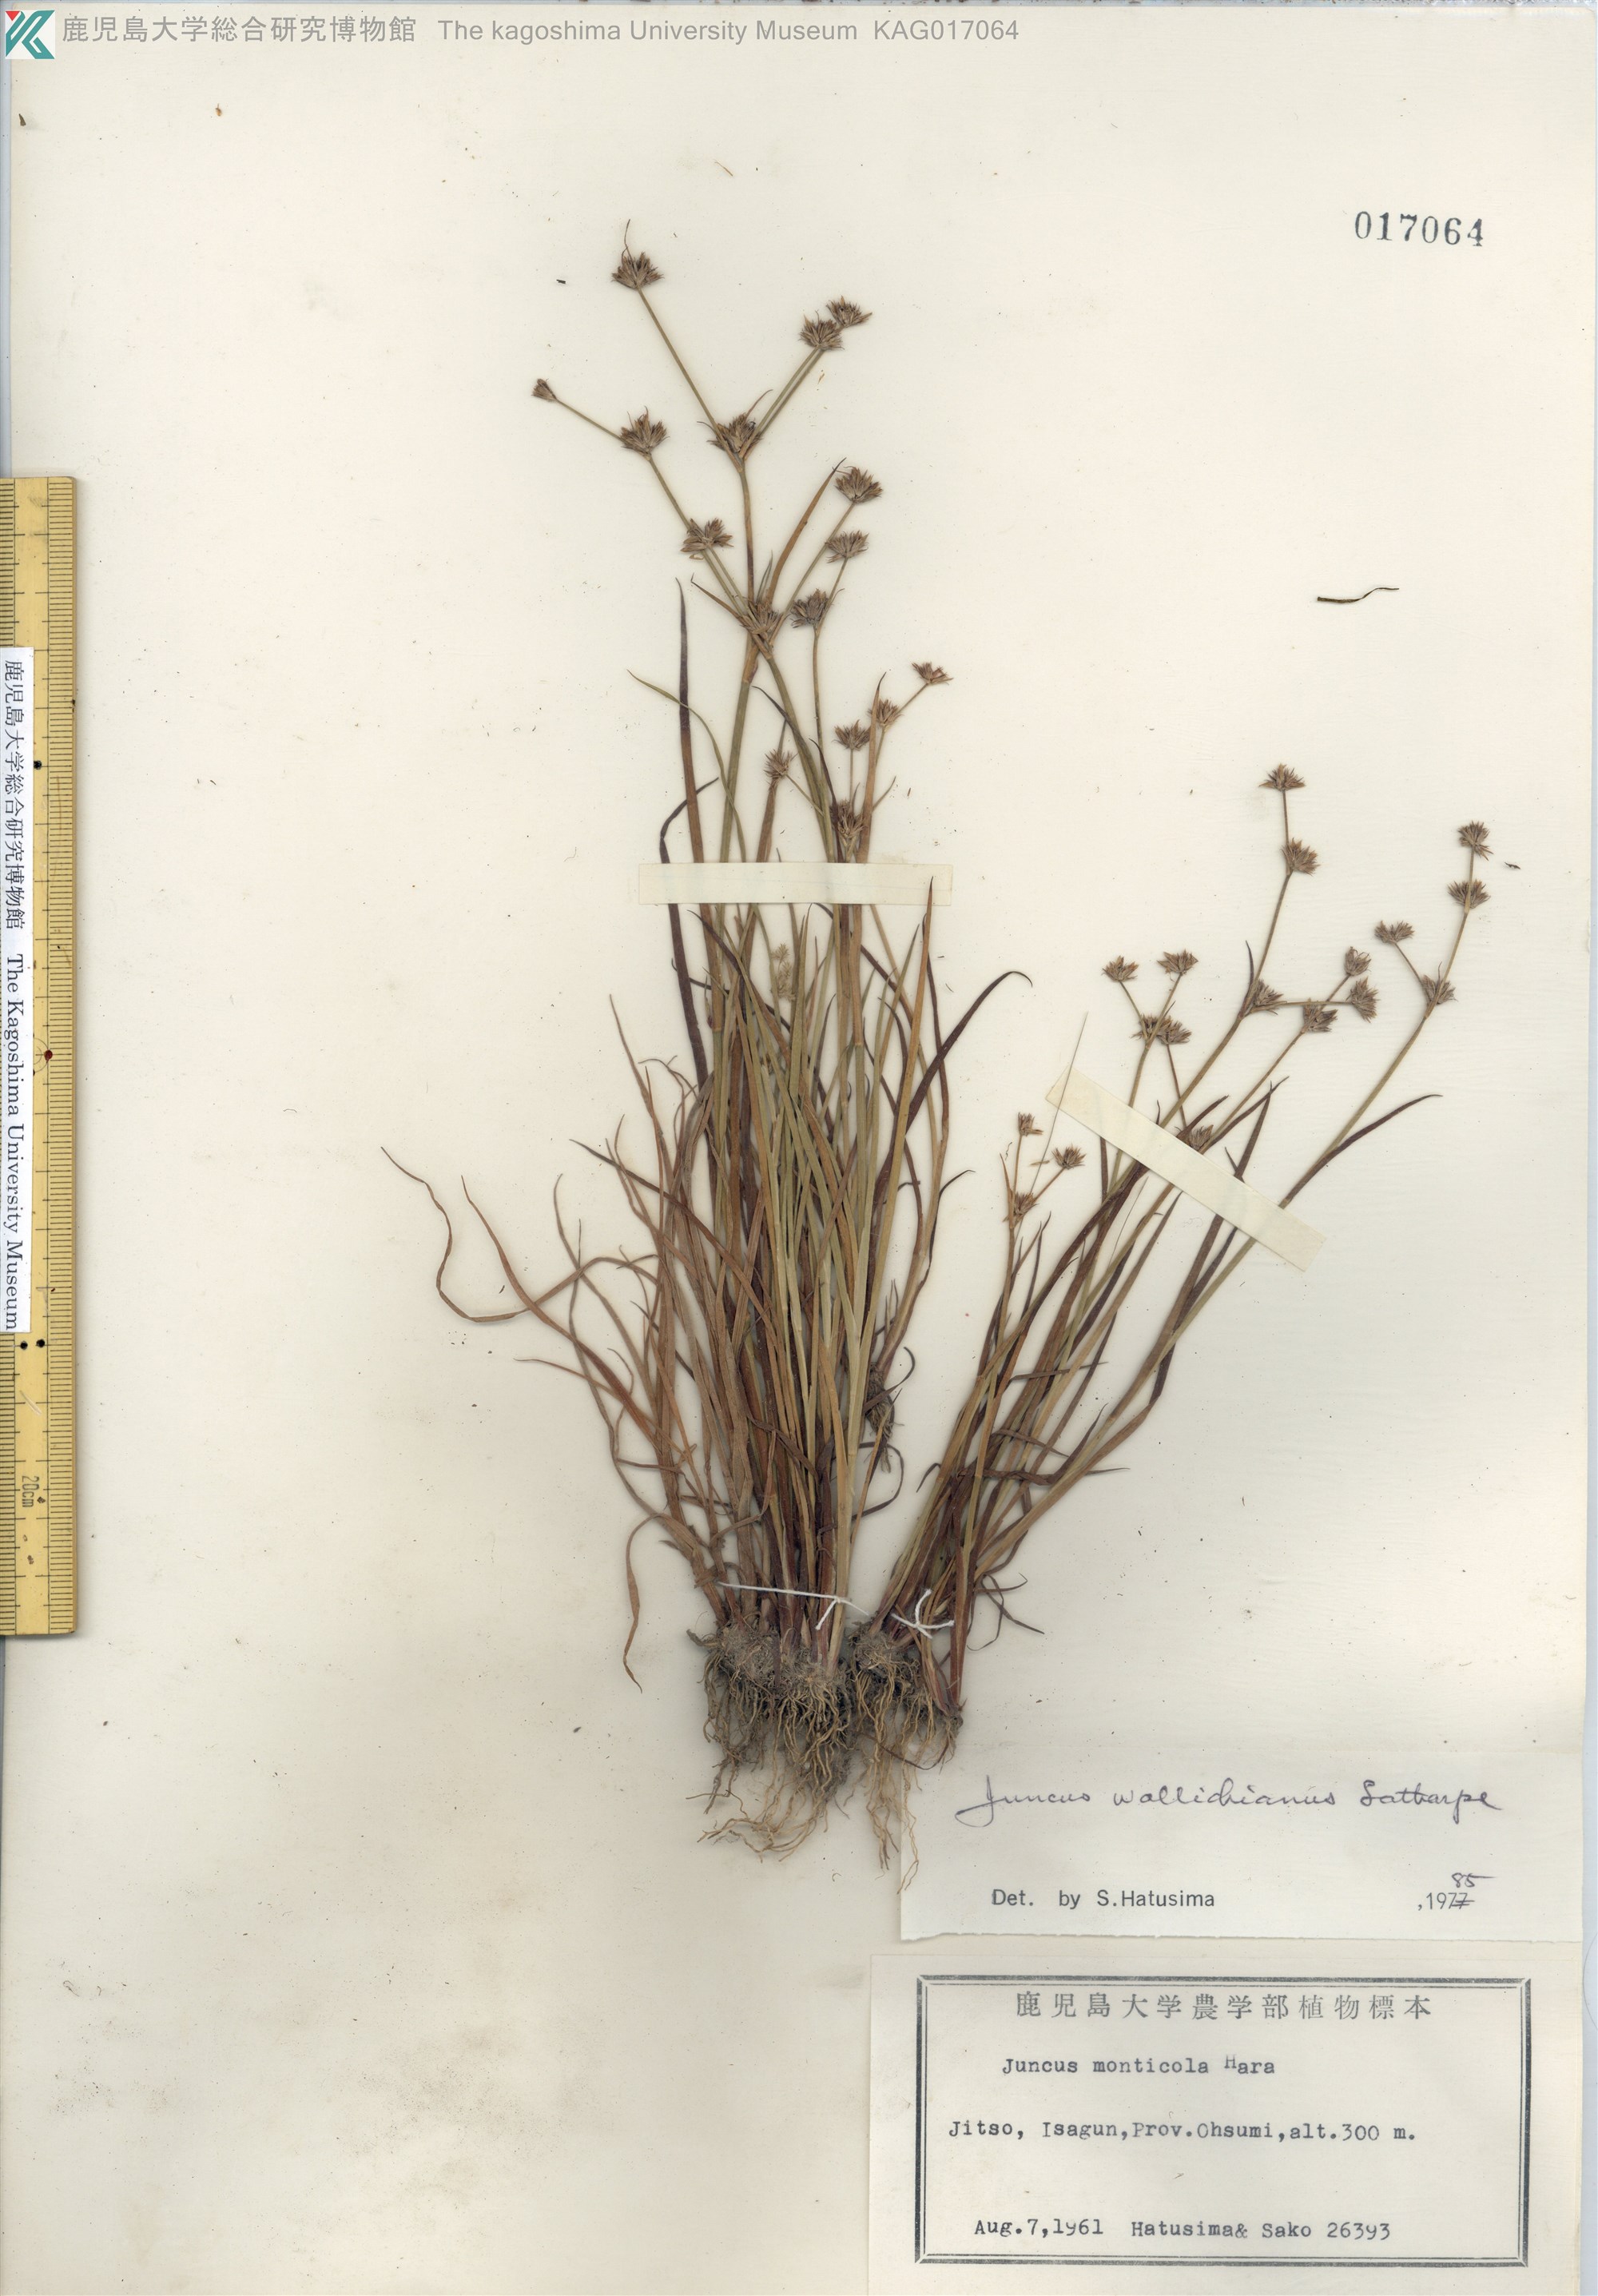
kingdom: Plantae
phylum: Tracheophyta
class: Liliopsida
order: Poales
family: Juncaceae
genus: Juncus
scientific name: Juncus prismatocarpus
